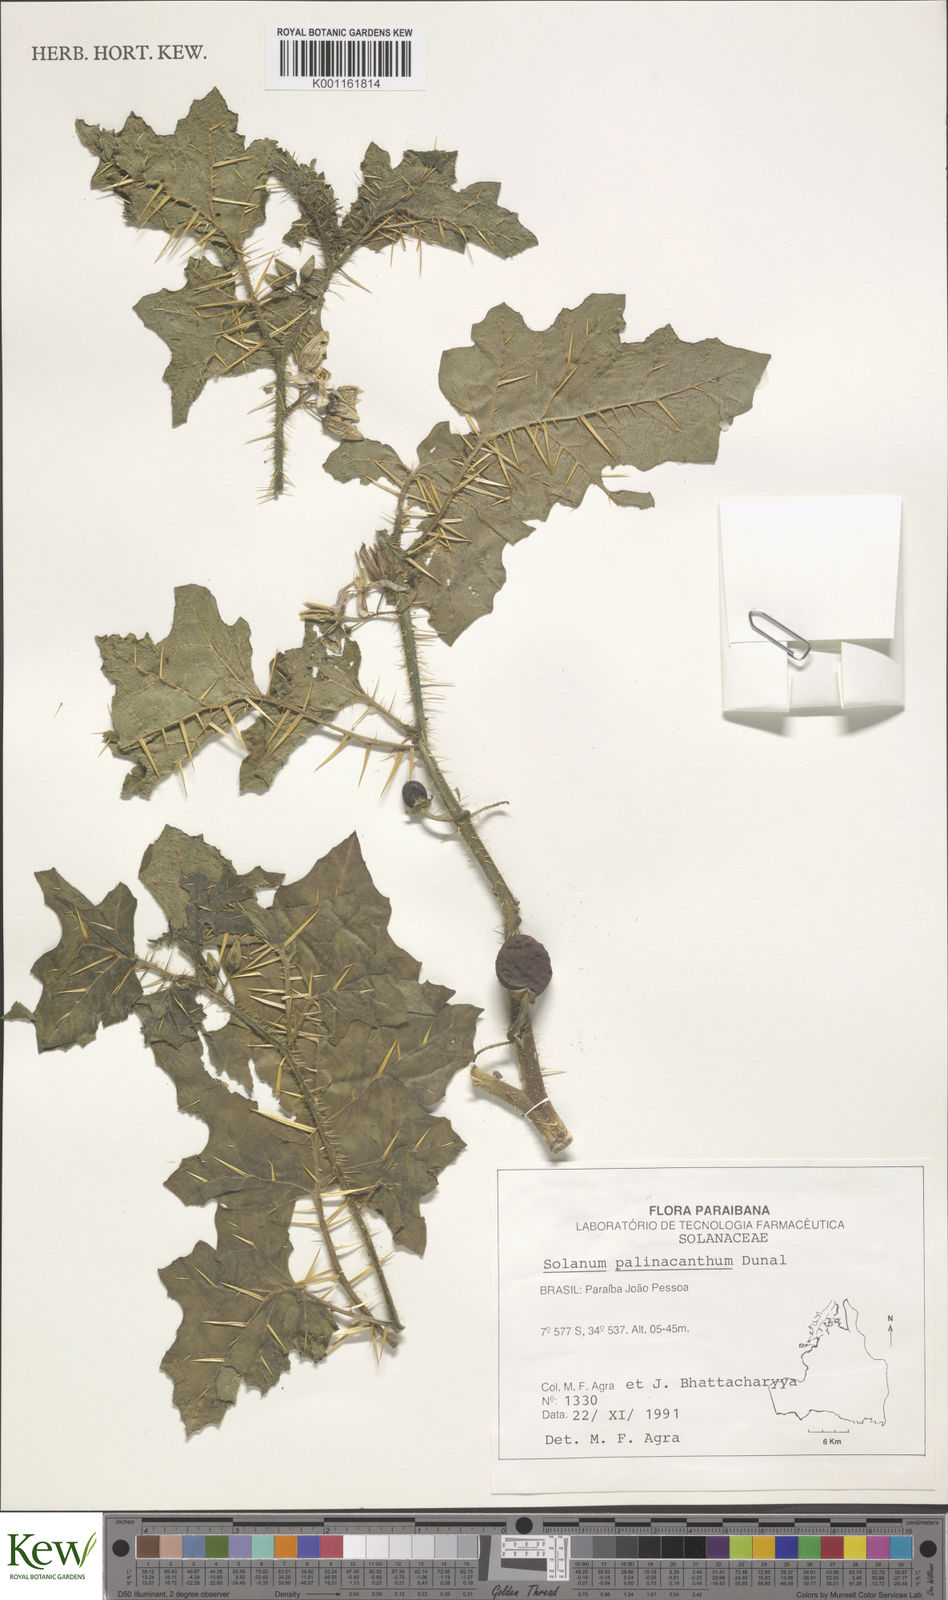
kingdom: Plantae
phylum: Tracheophyta
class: Magnoliopsida
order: Solanales
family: Solanaceae
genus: Solanum
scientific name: Solanum palinacanthum
